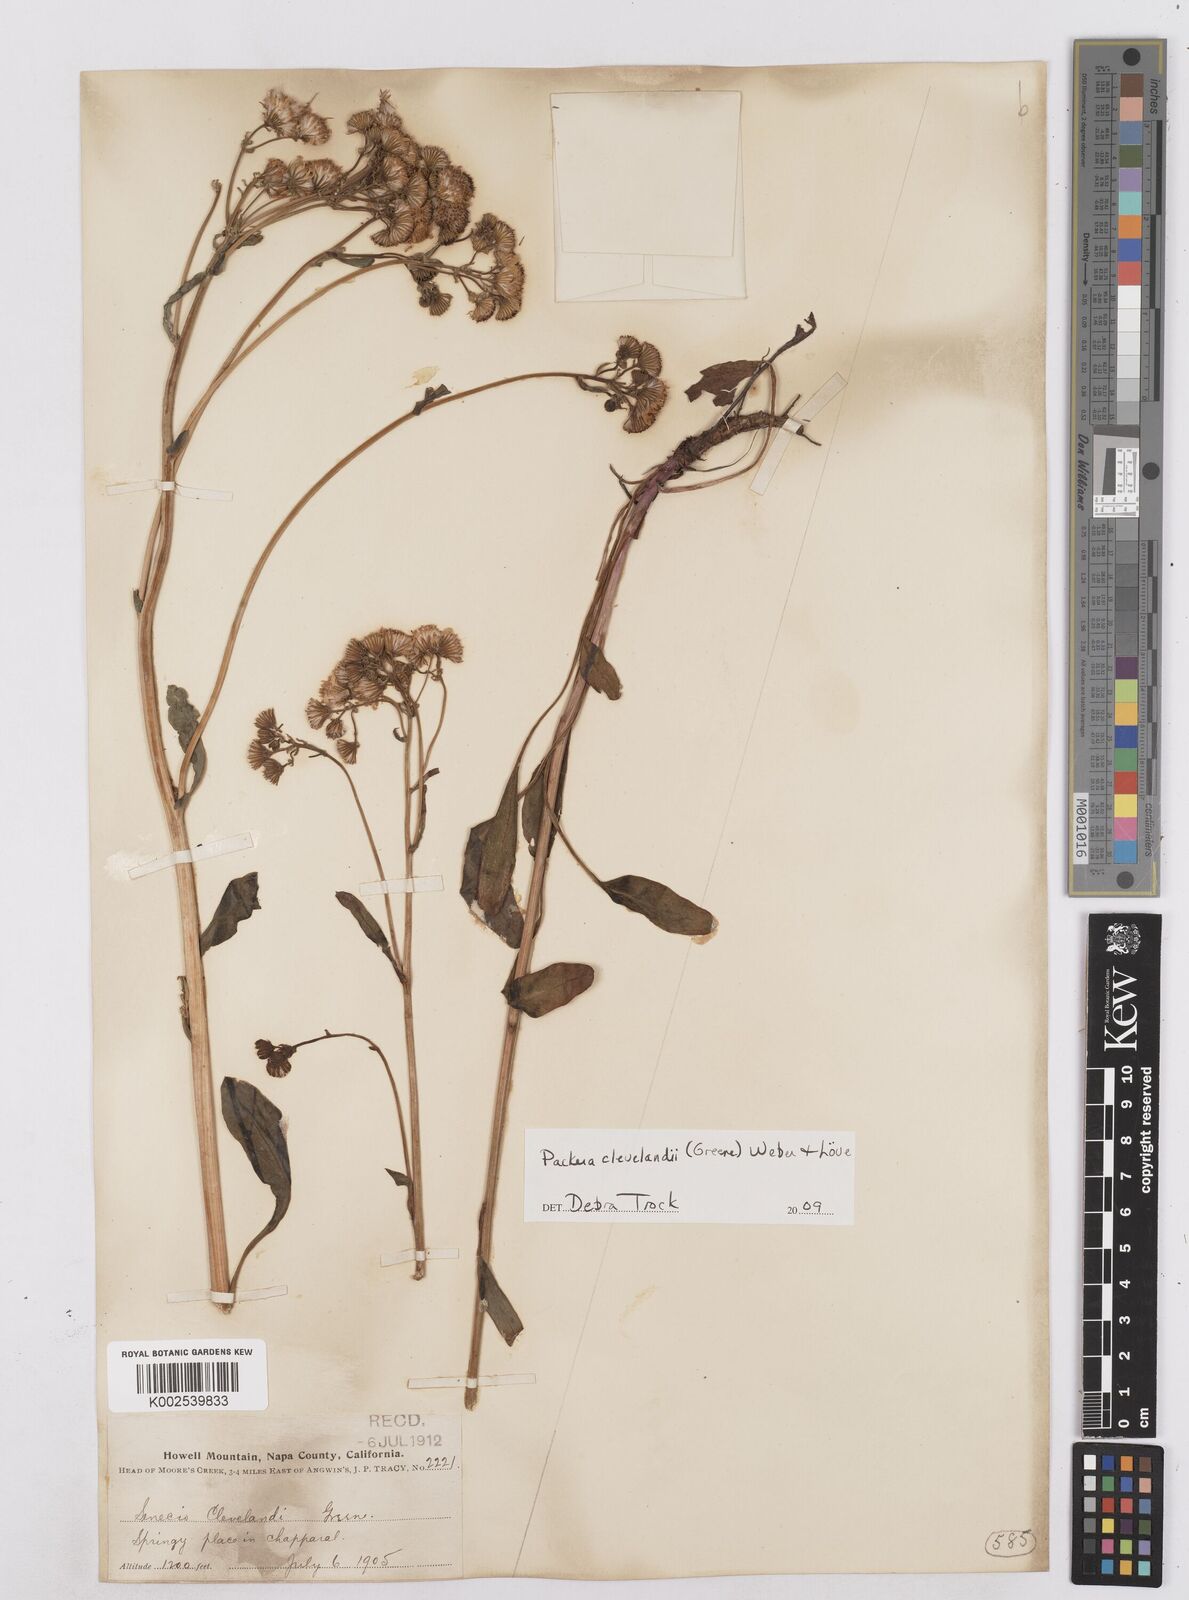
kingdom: Plantae
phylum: Tracheophyta
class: Magnoliopsida
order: Asterales
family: Asteraceae
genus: Packera
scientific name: Packera clevelandii
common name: Serpentine butterweed
